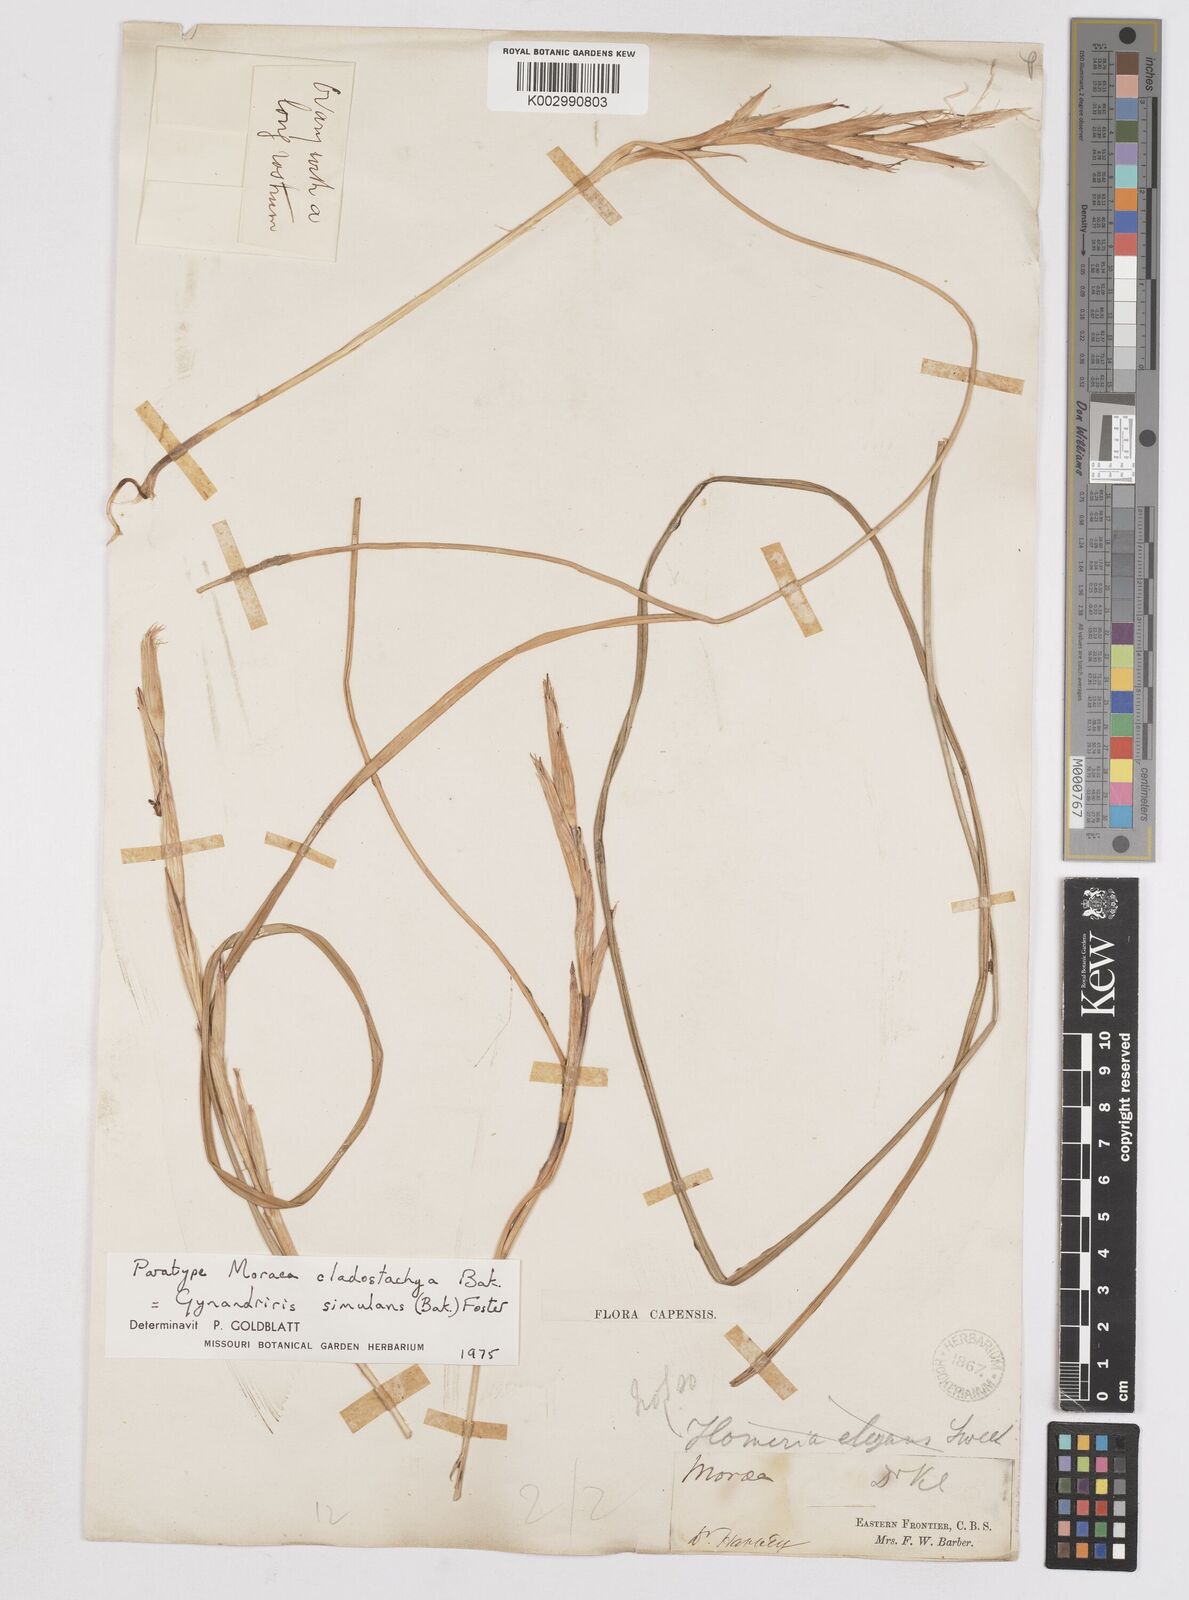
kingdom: Plantae
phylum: Tracheophyta
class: Liliopsida
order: Asparagales
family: Iridaceae
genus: Moraea
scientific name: Moraea simulans
